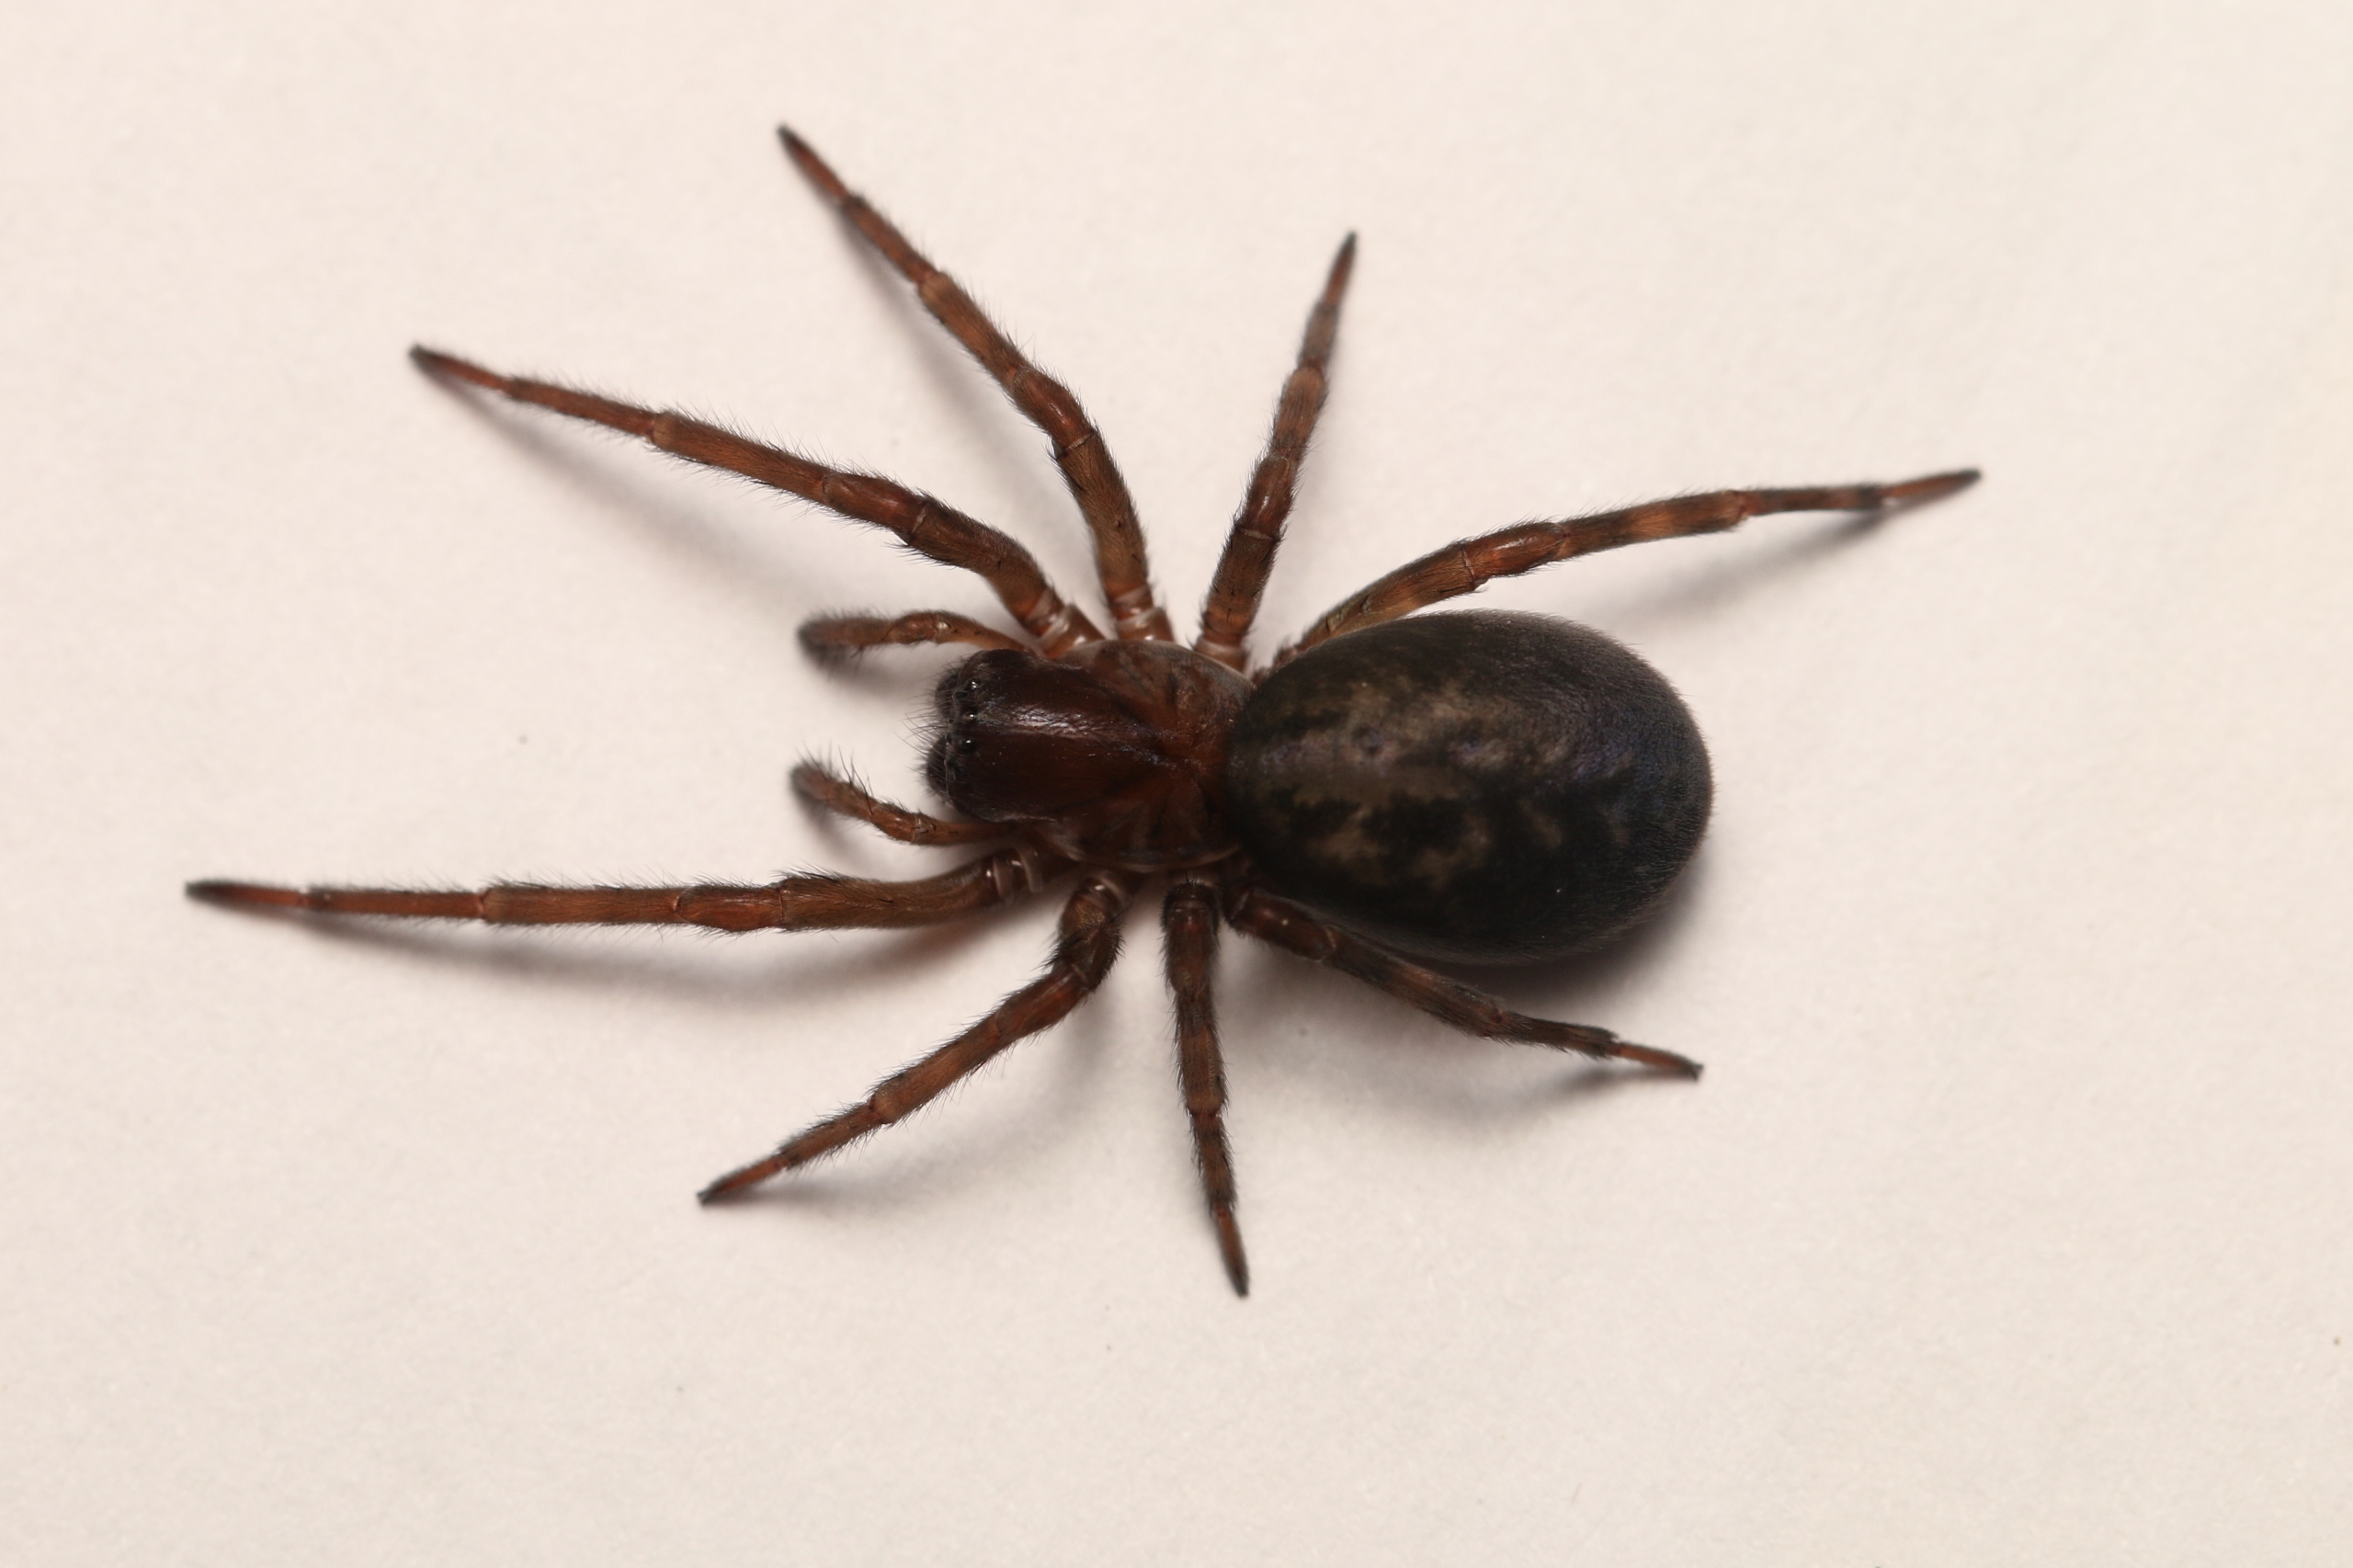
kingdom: Animalia
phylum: Arthropoda
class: Arachnida
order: Araneae
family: Amaurobiidae
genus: Amaurobius
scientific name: Amaurobius ferox
